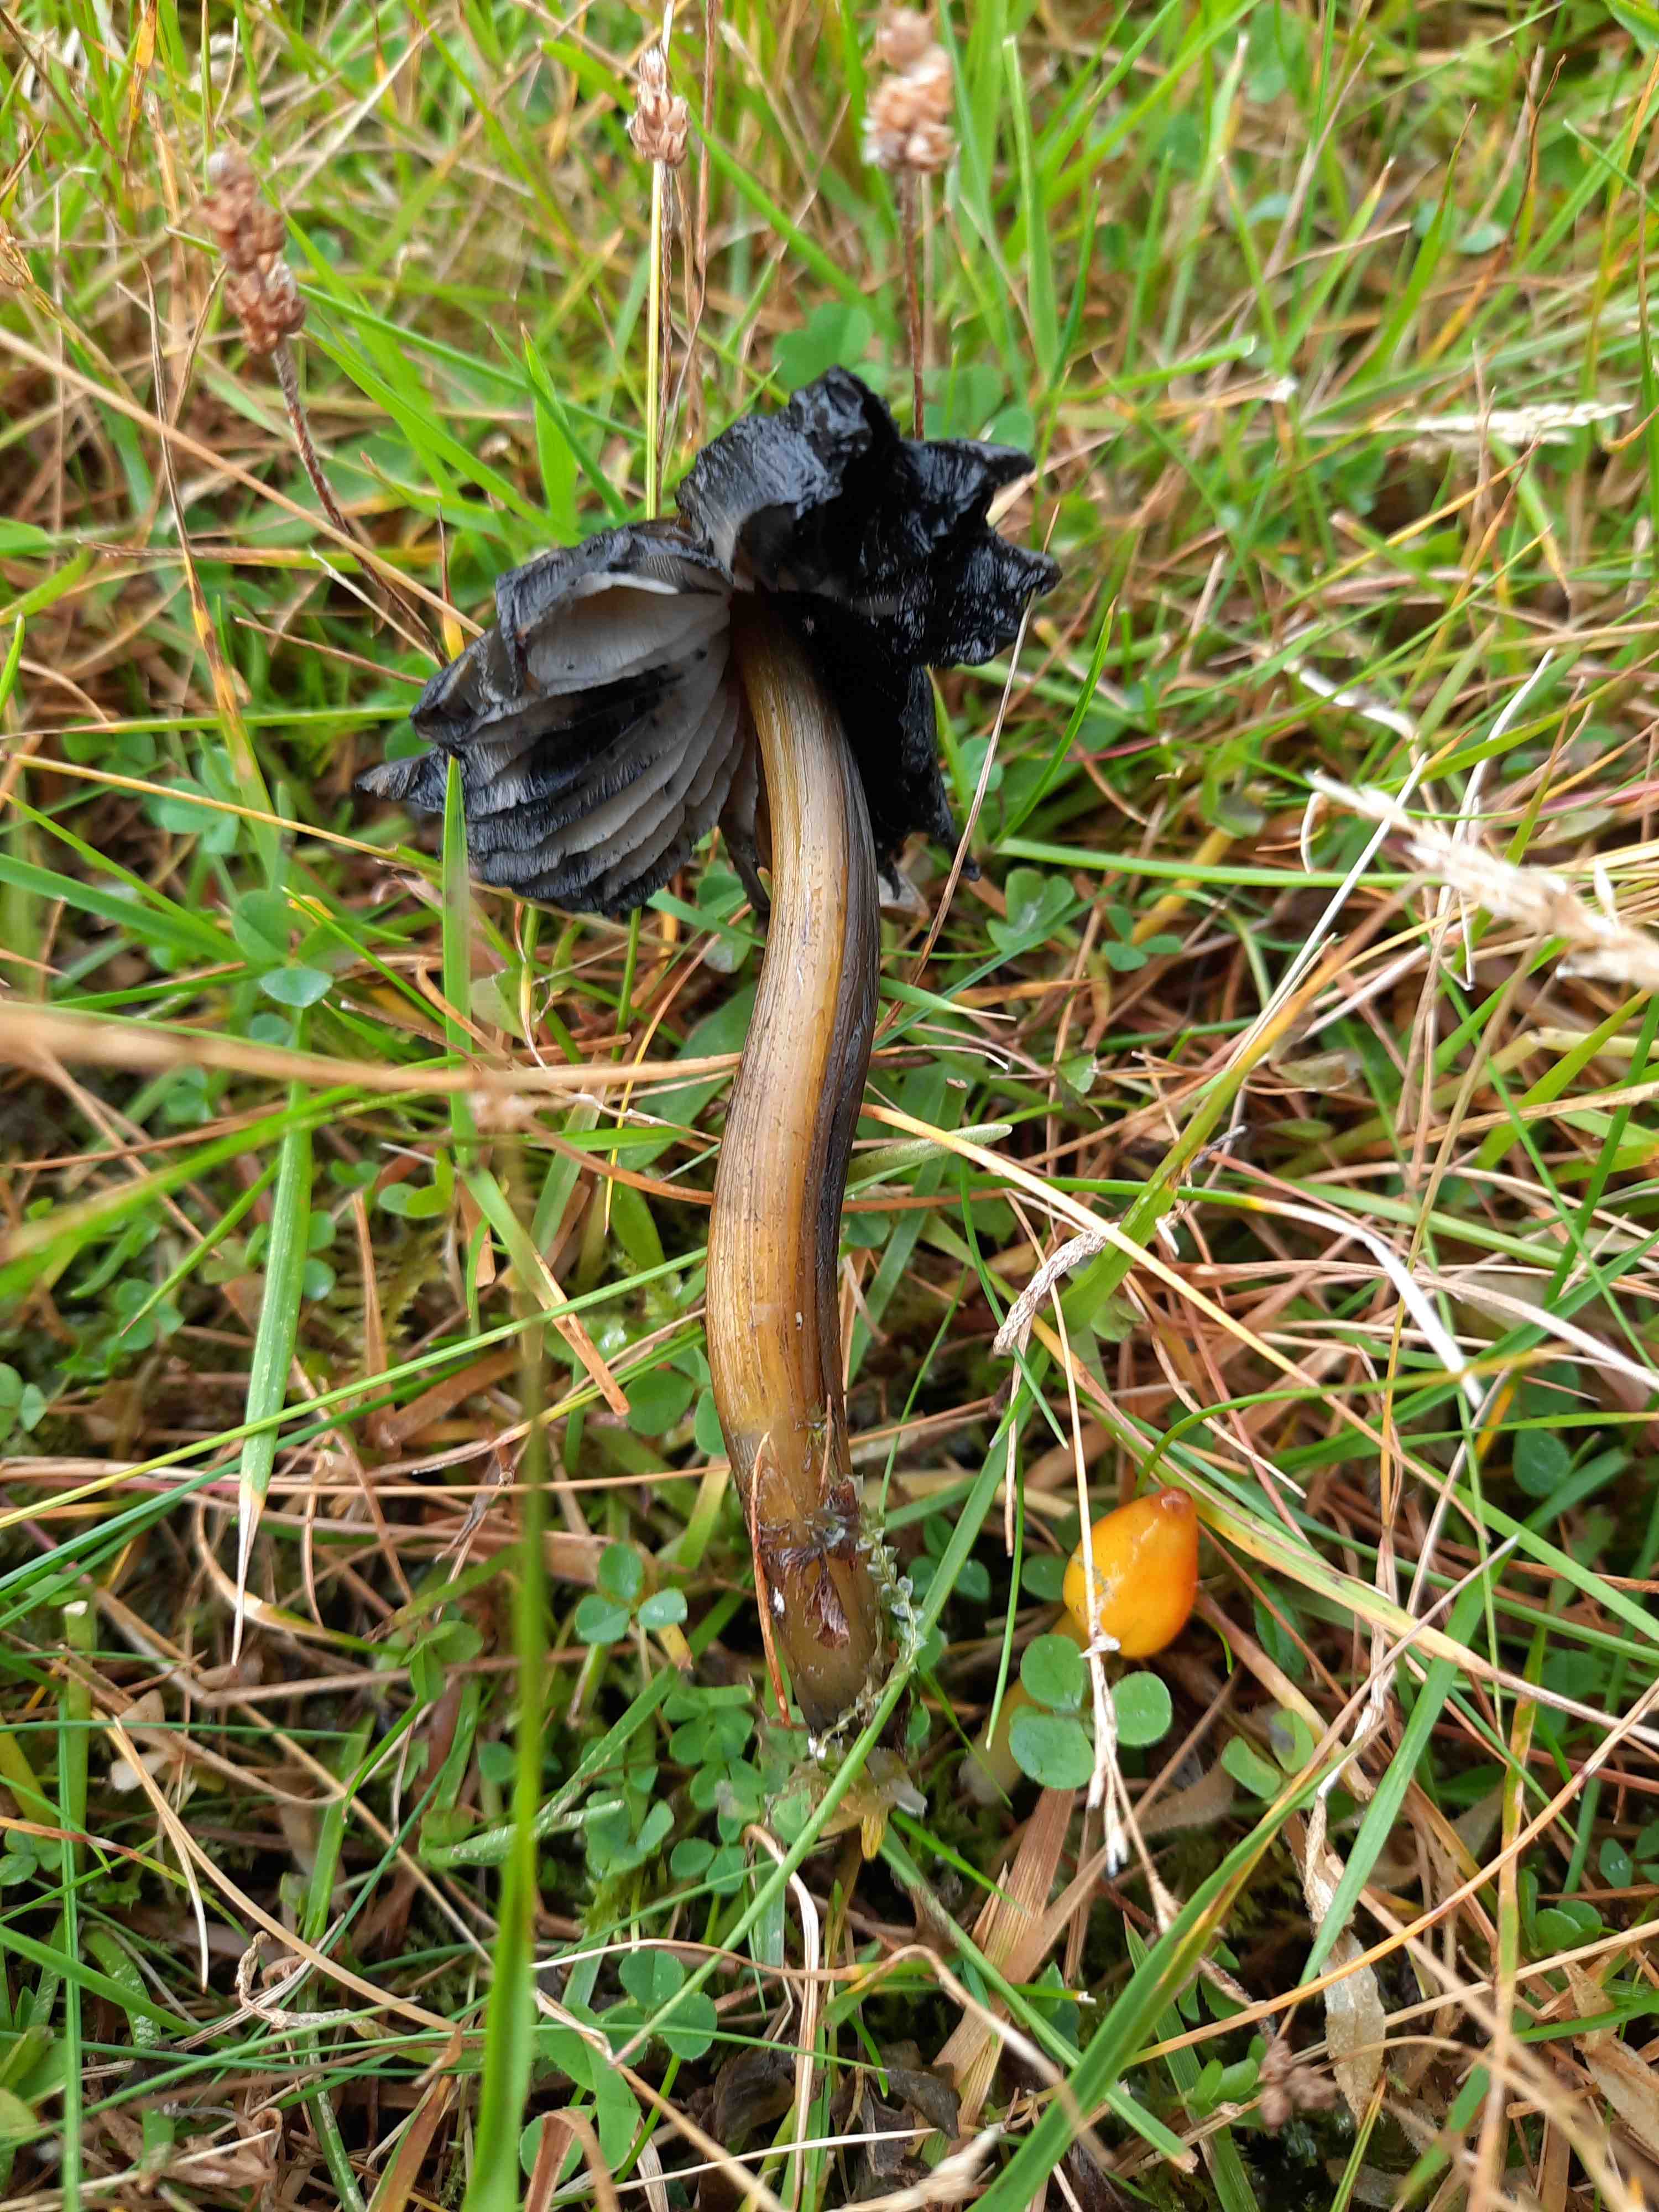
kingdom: Fungi
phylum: Basidiomycota
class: Agaricomycetes
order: Agaricales
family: Hygrophoraceae
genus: Hygrocybe
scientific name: Hygrocybe conica
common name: kegle-vokshat
